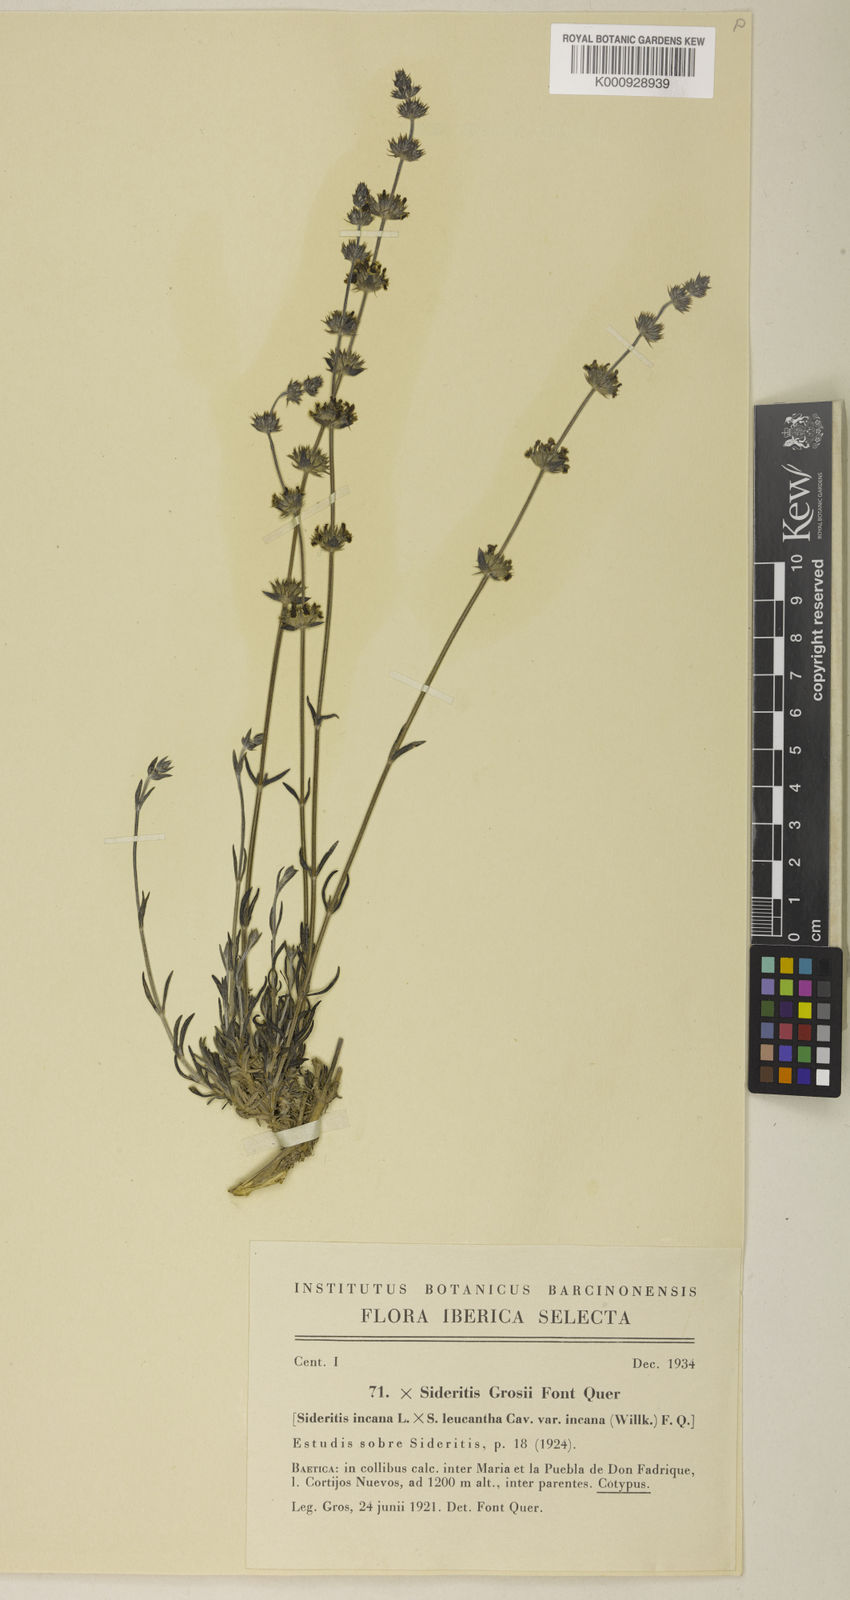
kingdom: Plantae
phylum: Tracheophyta
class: Magnoliopsida
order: Lamiales
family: Lamiaceae
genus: Sideritis
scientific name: Sideritis grossii
